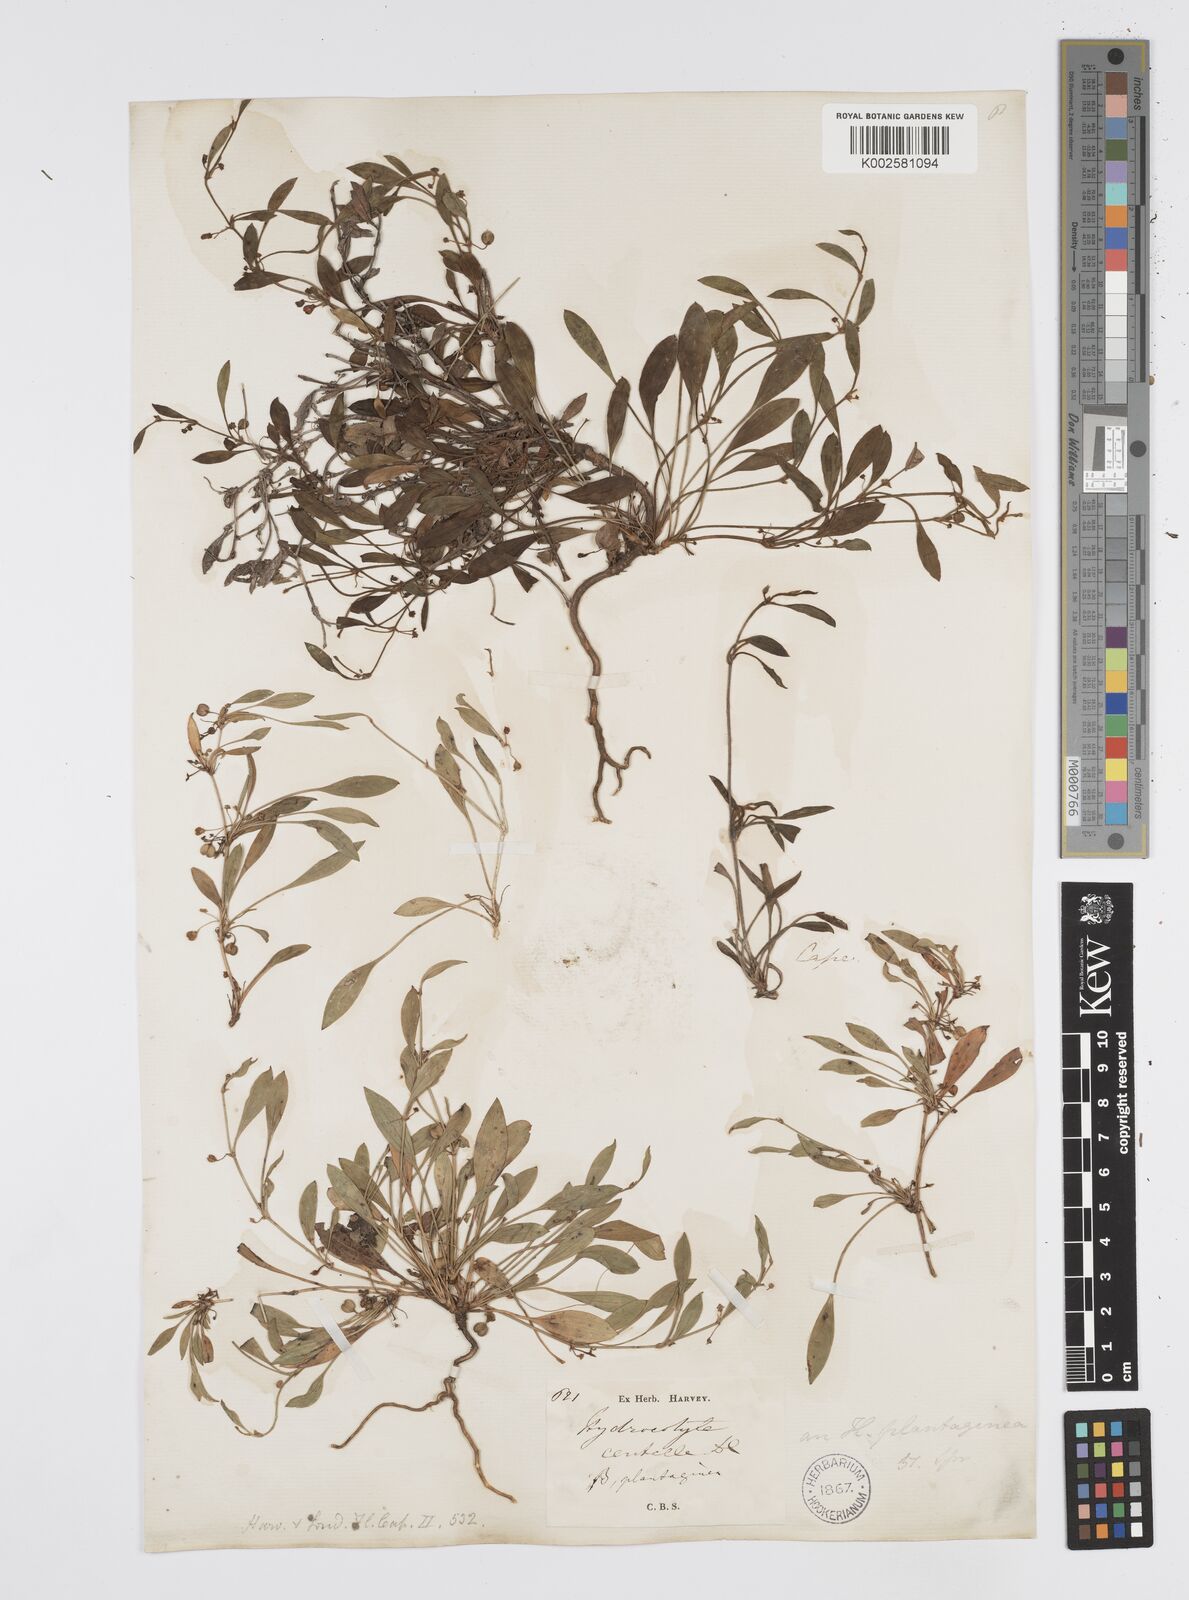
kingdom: Plantae
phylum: Tracheophyta
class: Magnoliopsida
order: Apiales
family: Apiaceae
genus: Centella
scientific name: Centella affinis
